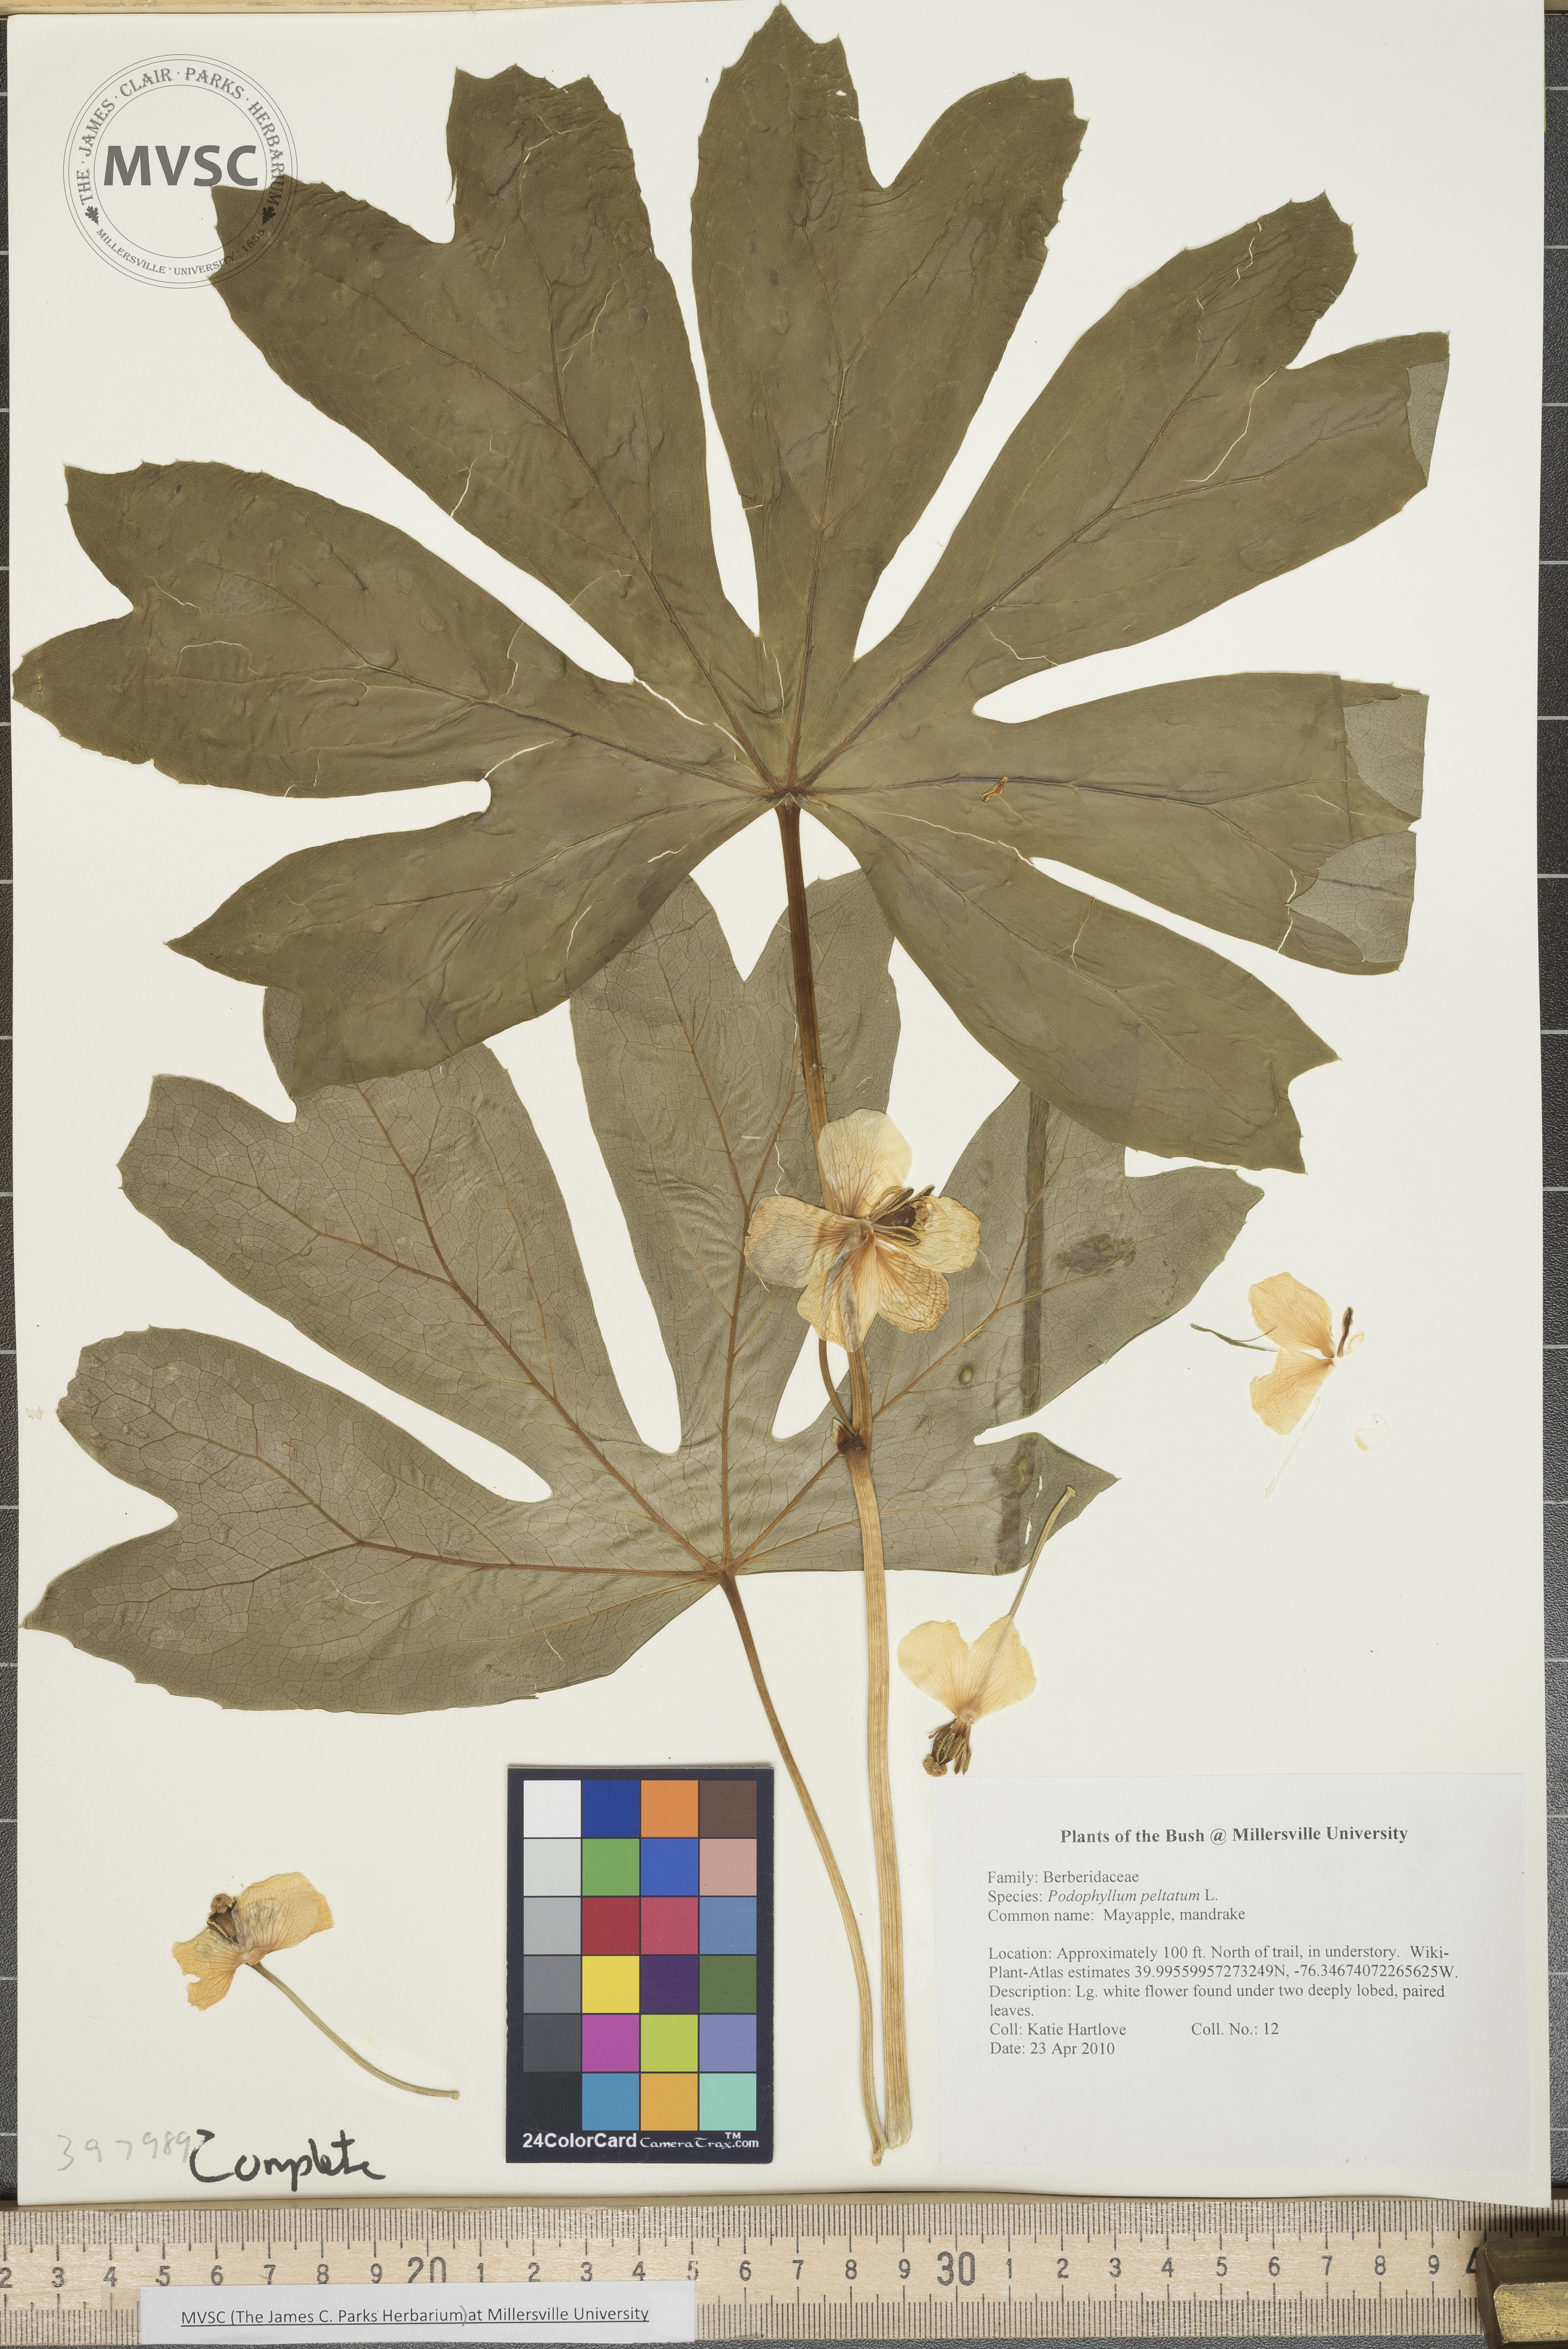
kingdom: Plantae
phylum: Tracheophyta
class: Magnoliopsida
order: Ranunculales
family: Berberidaceae
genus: Podophyllum
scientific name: Podophyllum peltatum
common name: Mayapple
